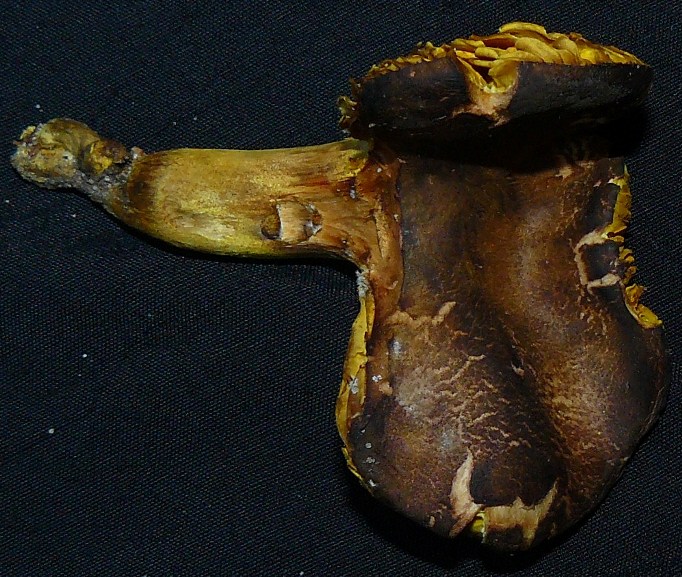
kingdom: Fungi
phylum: Basidiomycota
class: Agaricomycetes
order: Boletales
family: Boletaceae
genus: Phylloporus
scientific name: Phylloporus pelletieri
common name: lamelrørhat
